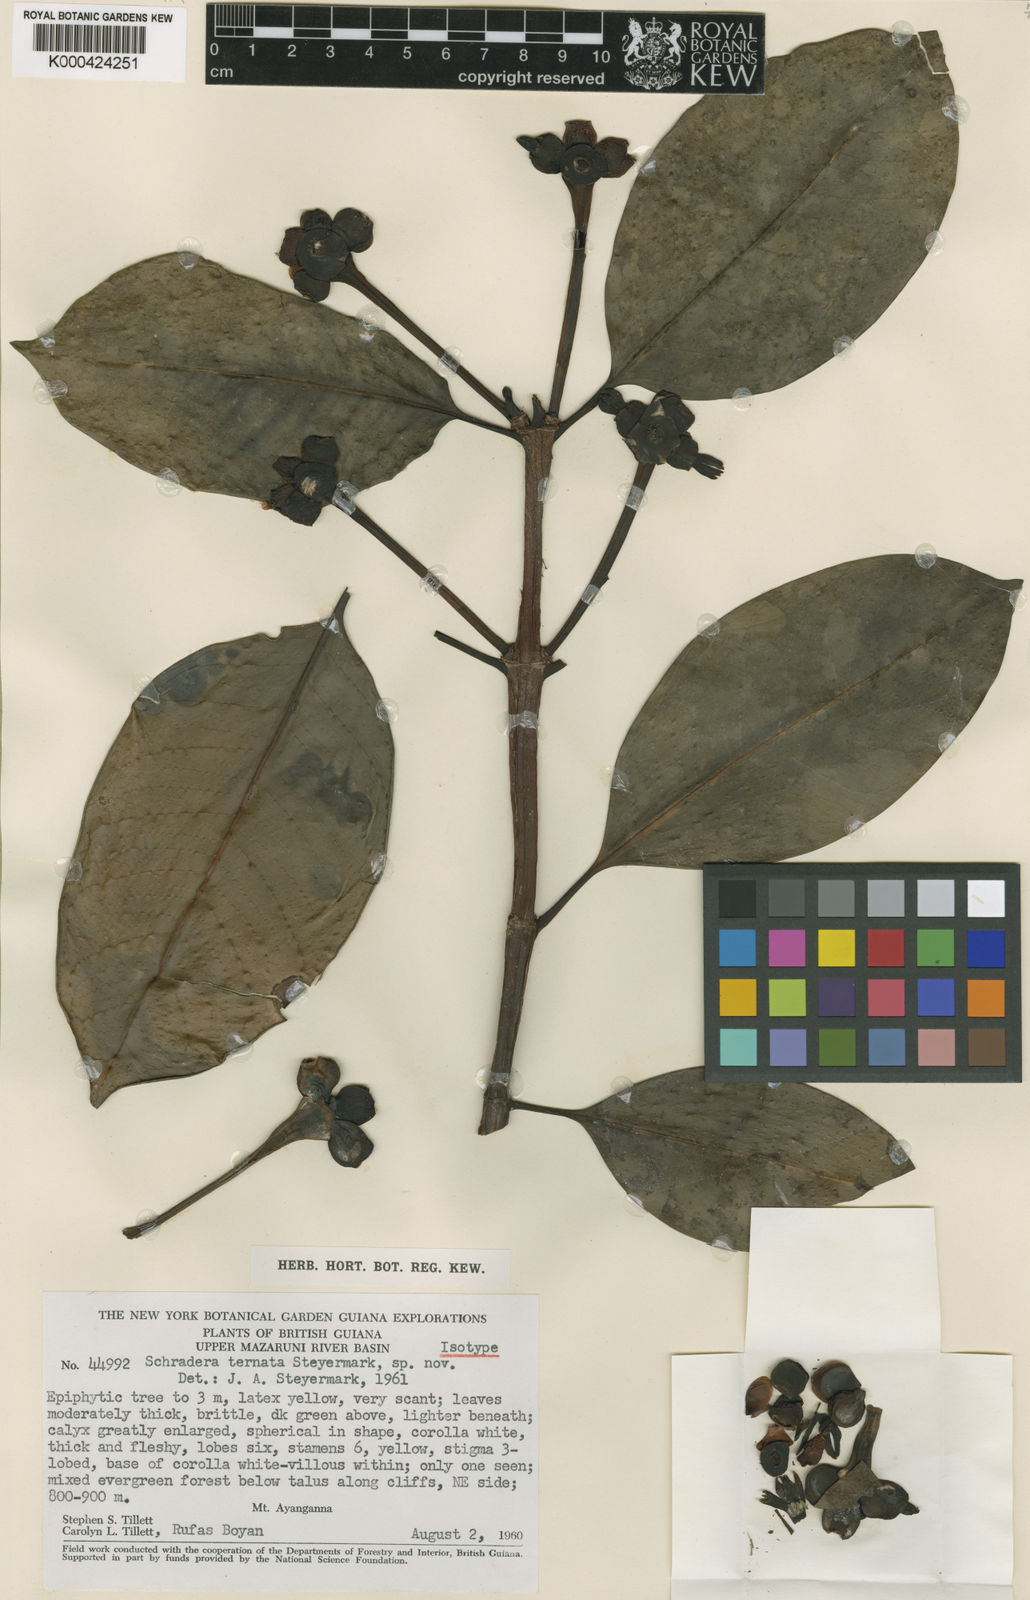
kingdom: Plantae
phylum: Tracheophyta
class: Magnoliopsida
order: Gentianales
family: Rubiaceae
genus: Schradera
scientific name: Schradera ternata
